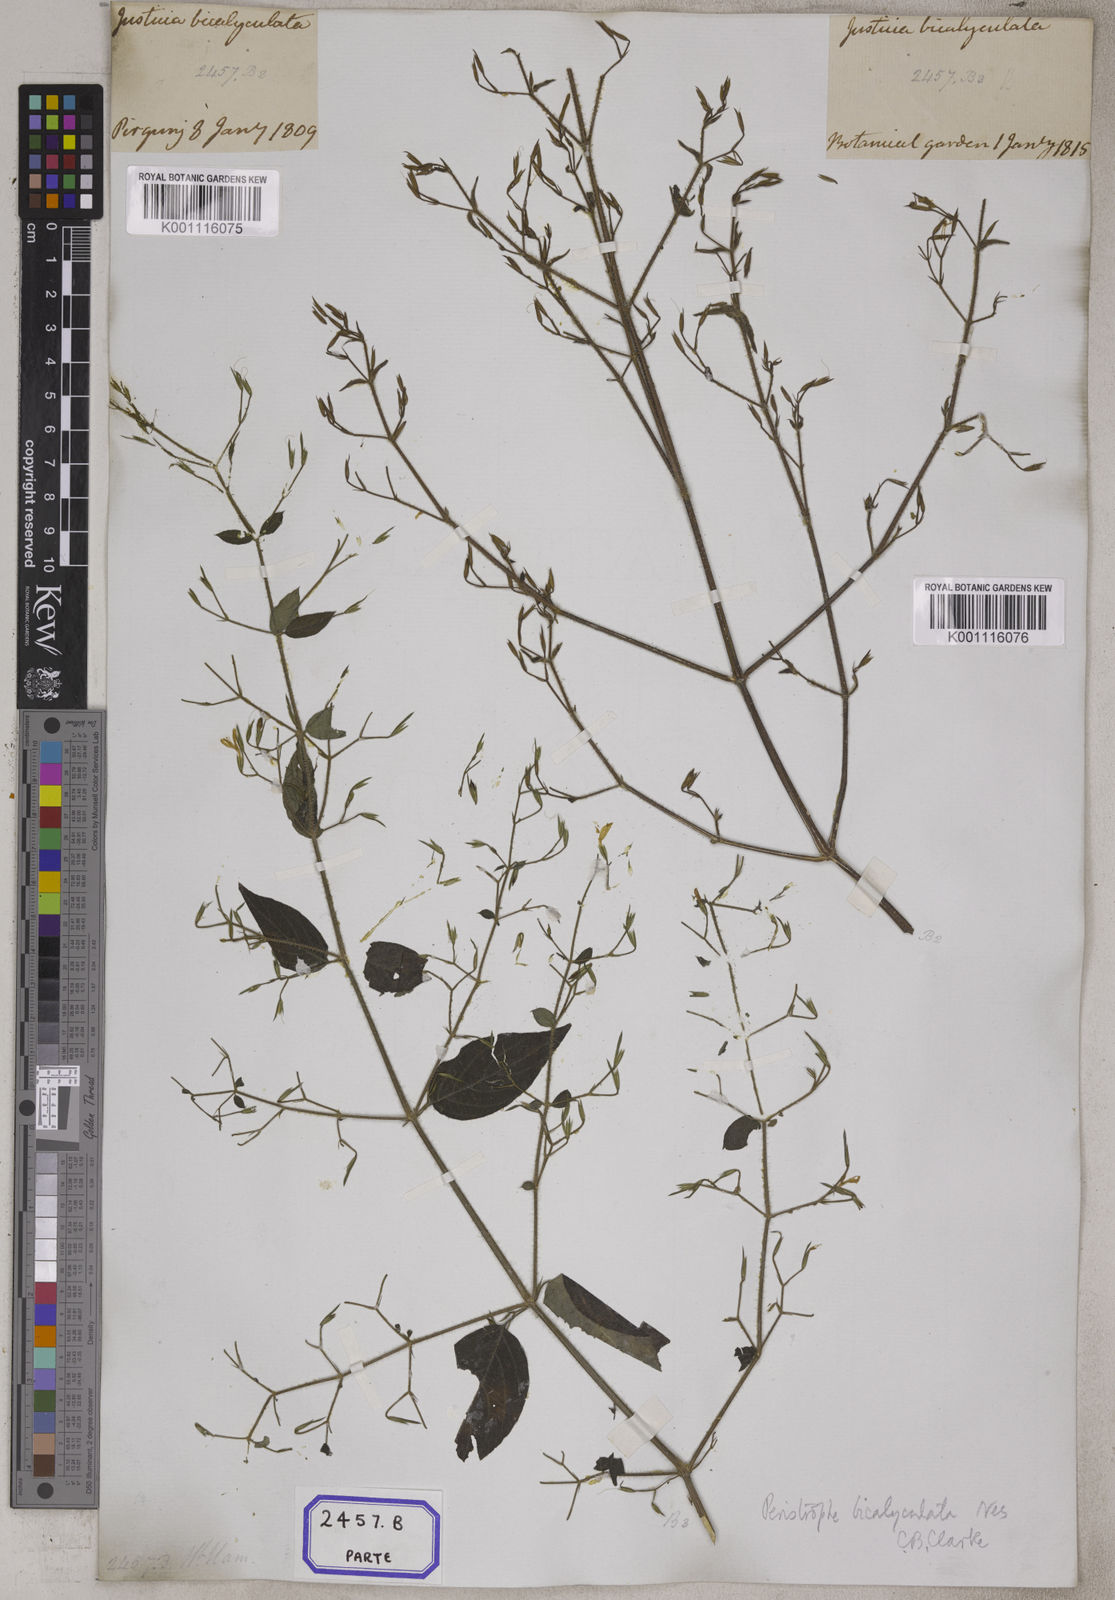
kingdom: Plantae
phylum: Tracheophyta
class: Magnoliopsida
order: Lamiales
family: Acanthaceae
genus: Dicliptera
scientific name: Dicliptera paniculata
